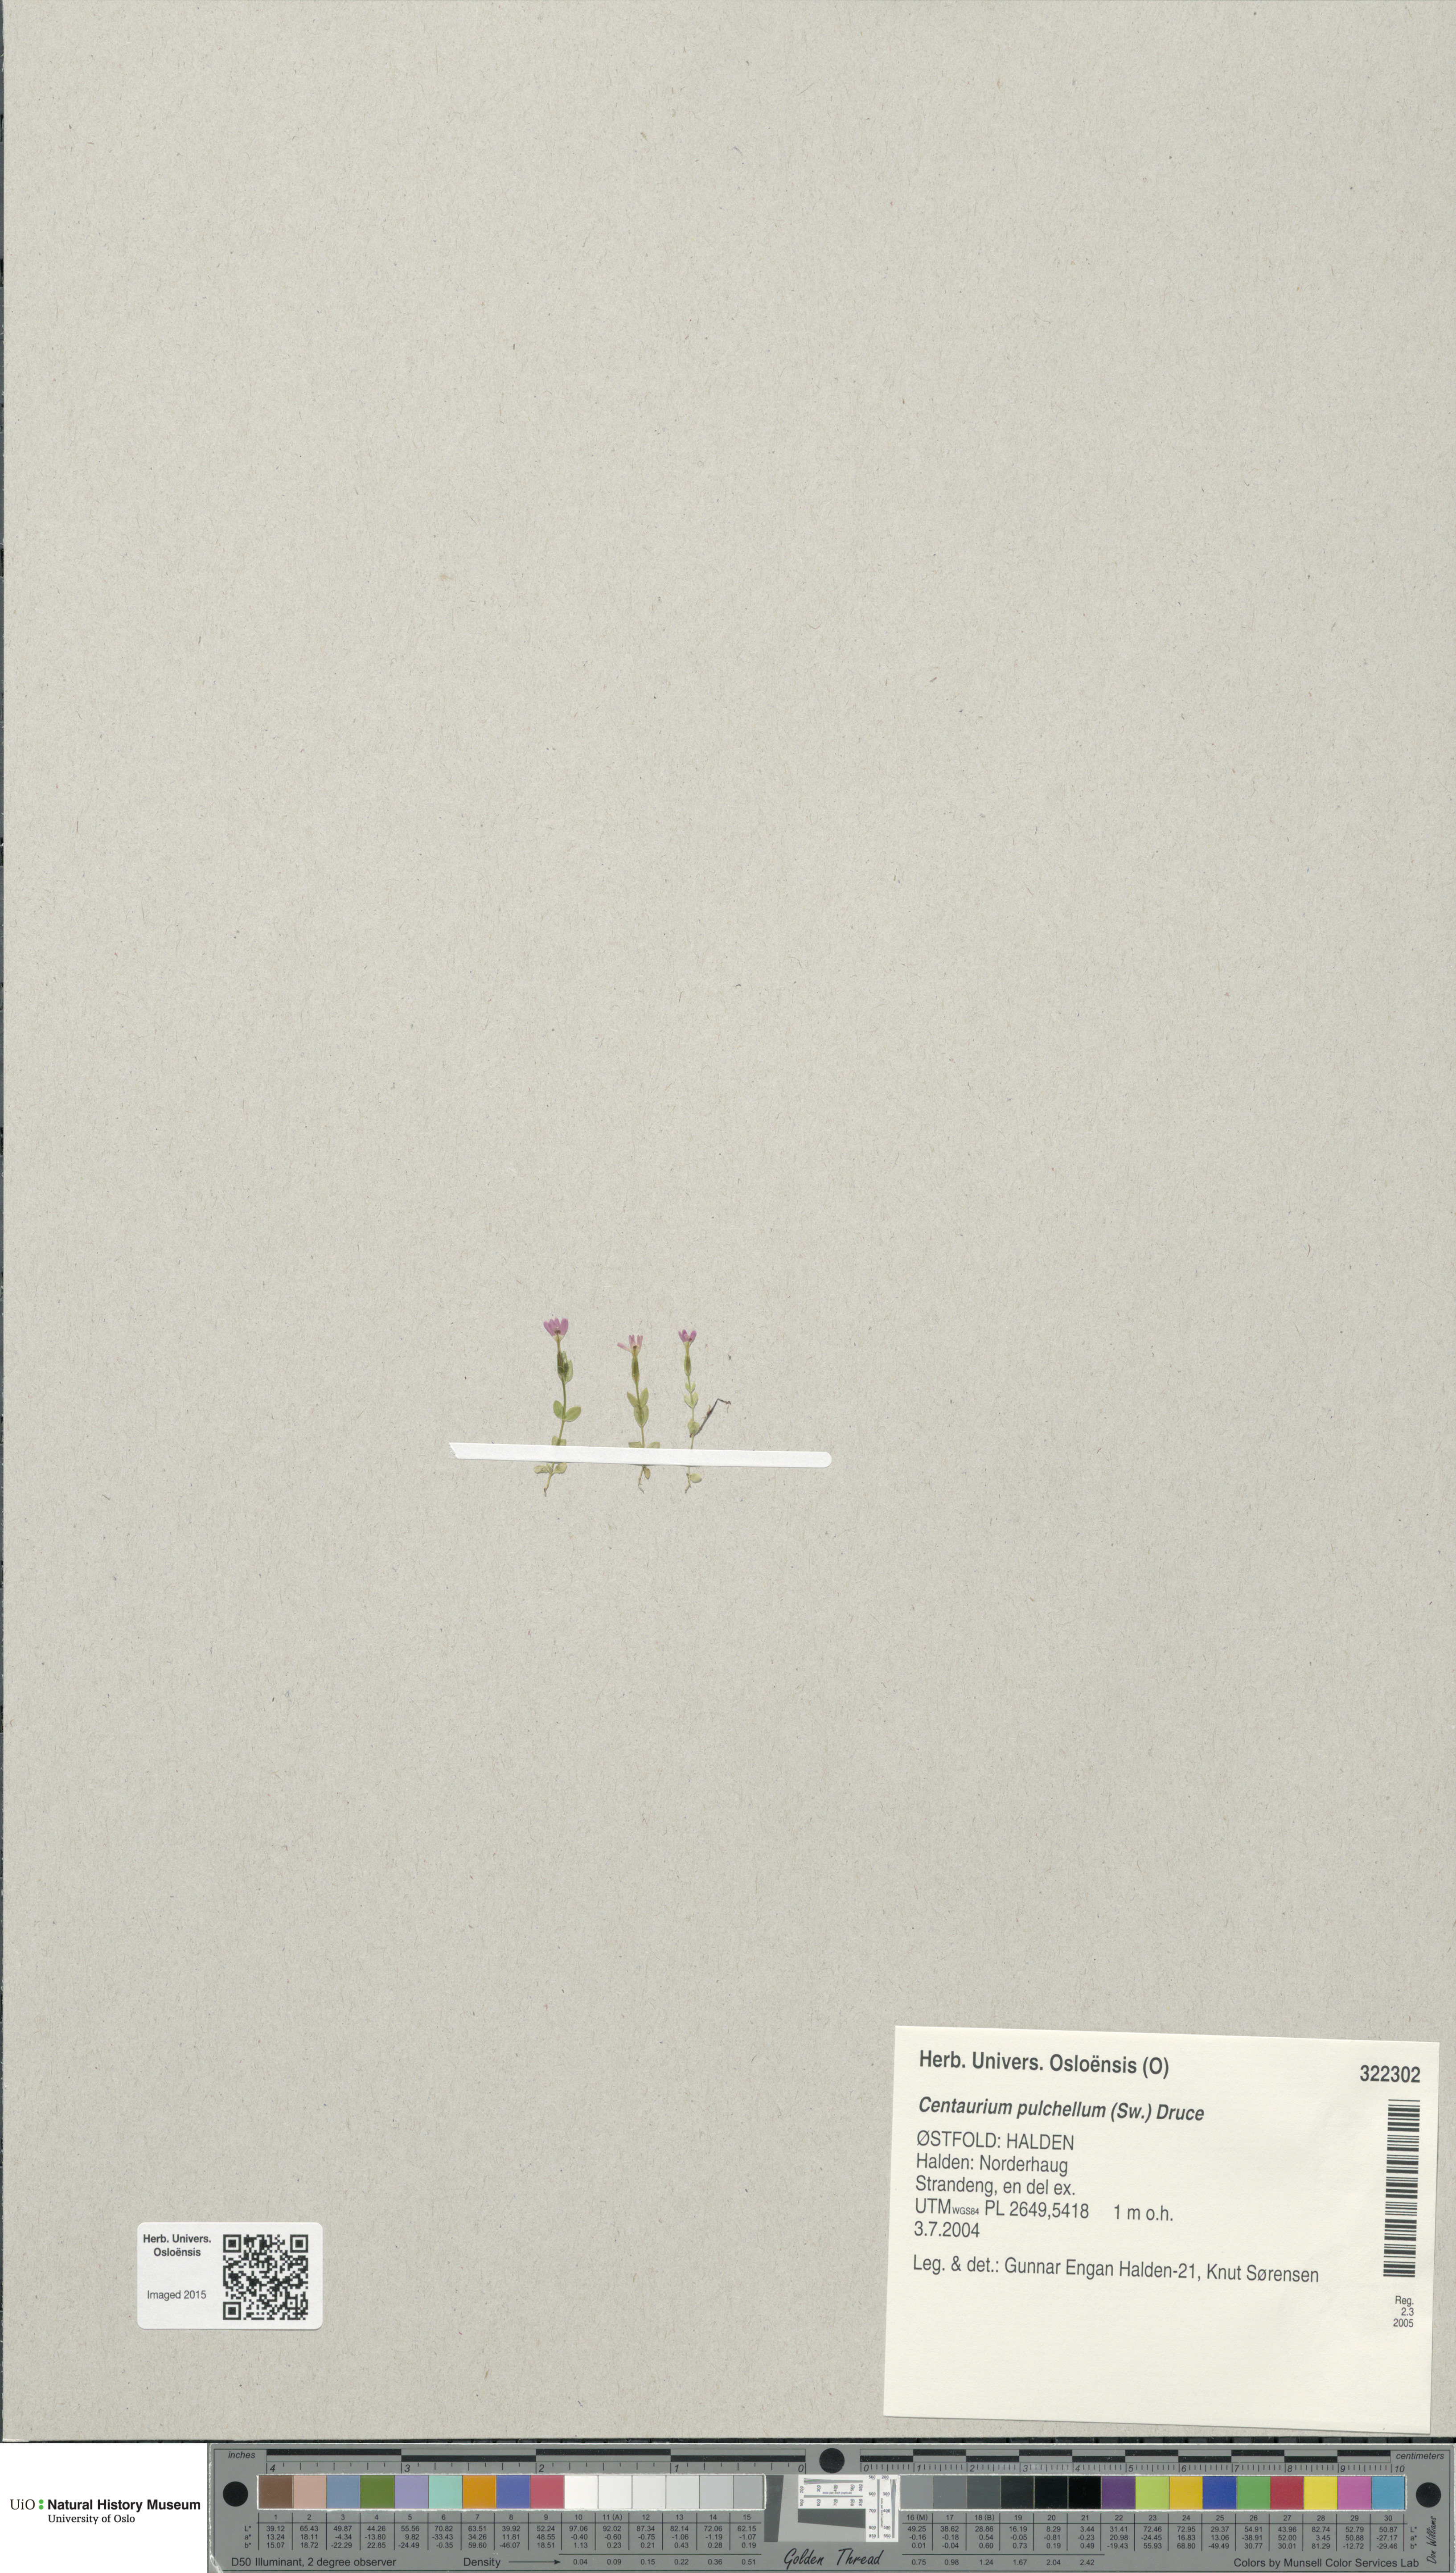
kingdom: Plantae
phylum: Tracheophyta
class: Magnoliopsida
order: Gentianales
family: Gentianaceae
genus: Centaurium
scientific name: Centaurium pulchellum
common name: Lesser centaury
